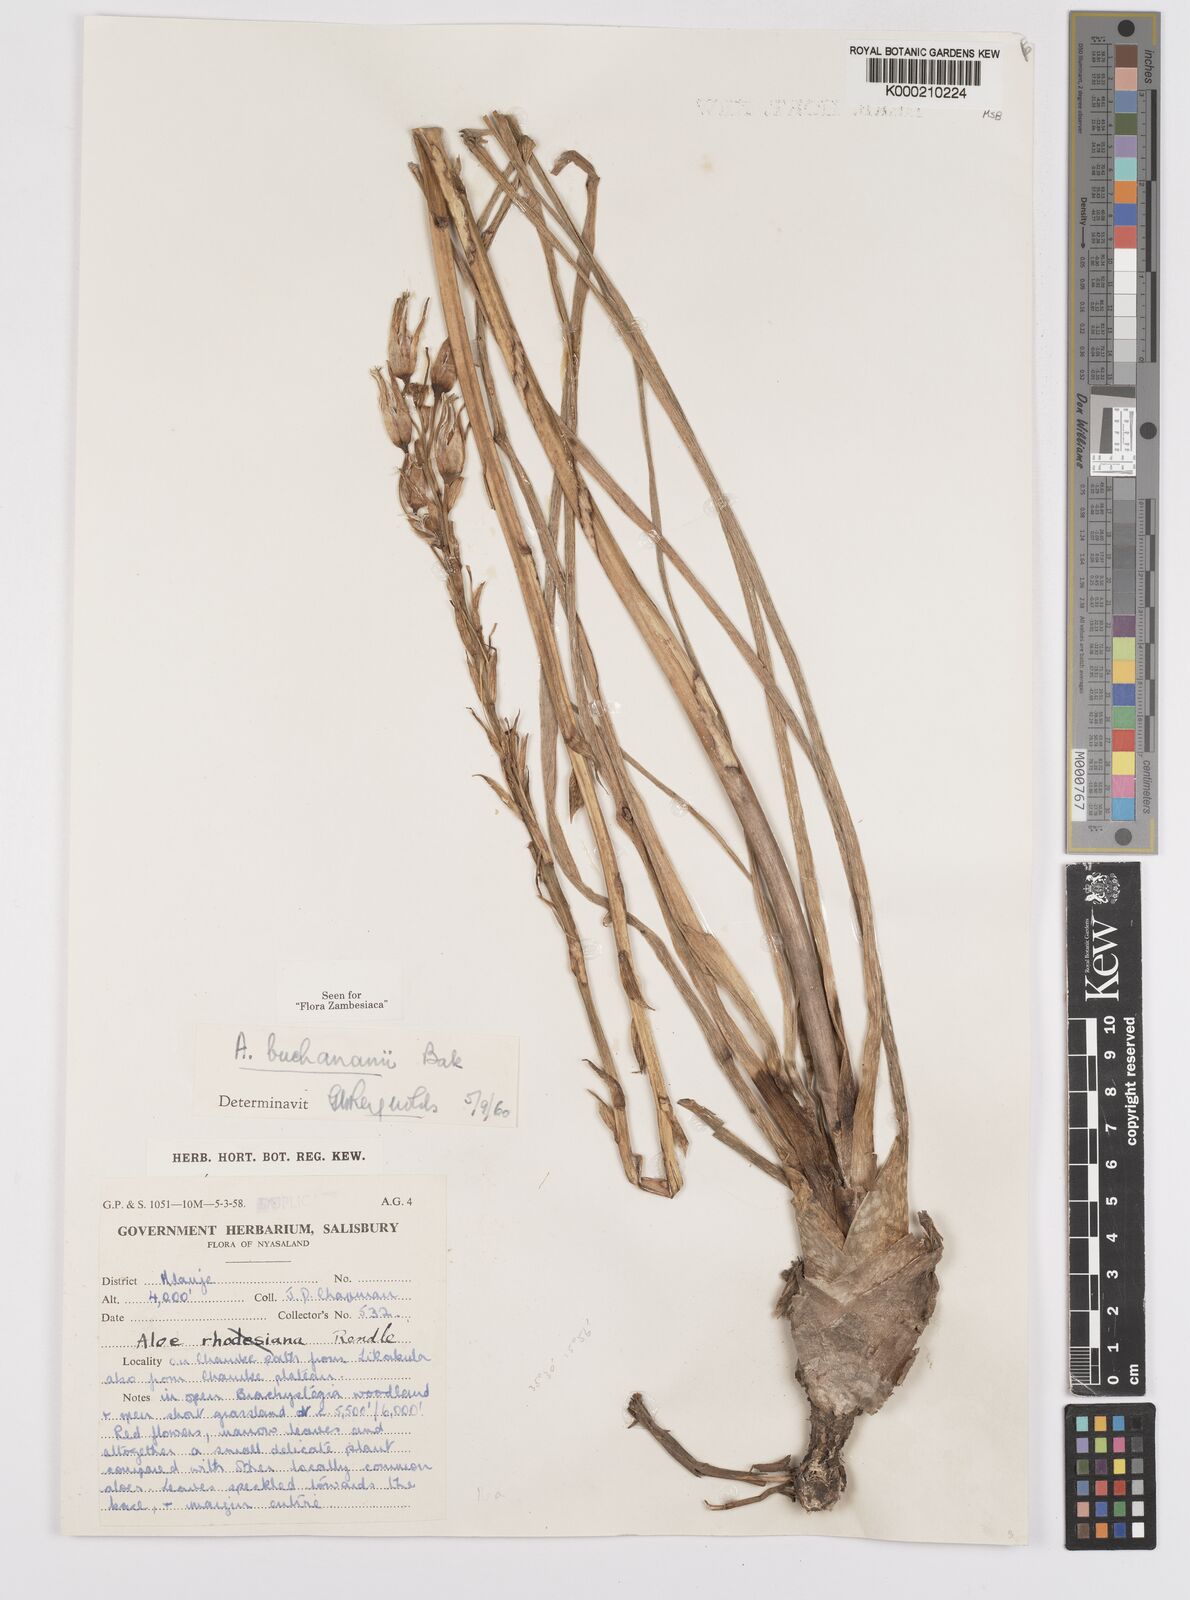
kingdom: Plantae
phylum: Tracheophyta
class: Liliopsida
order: Asparagales
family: Asphodelaceae
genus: Aloe
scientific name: Aloe buchananii
